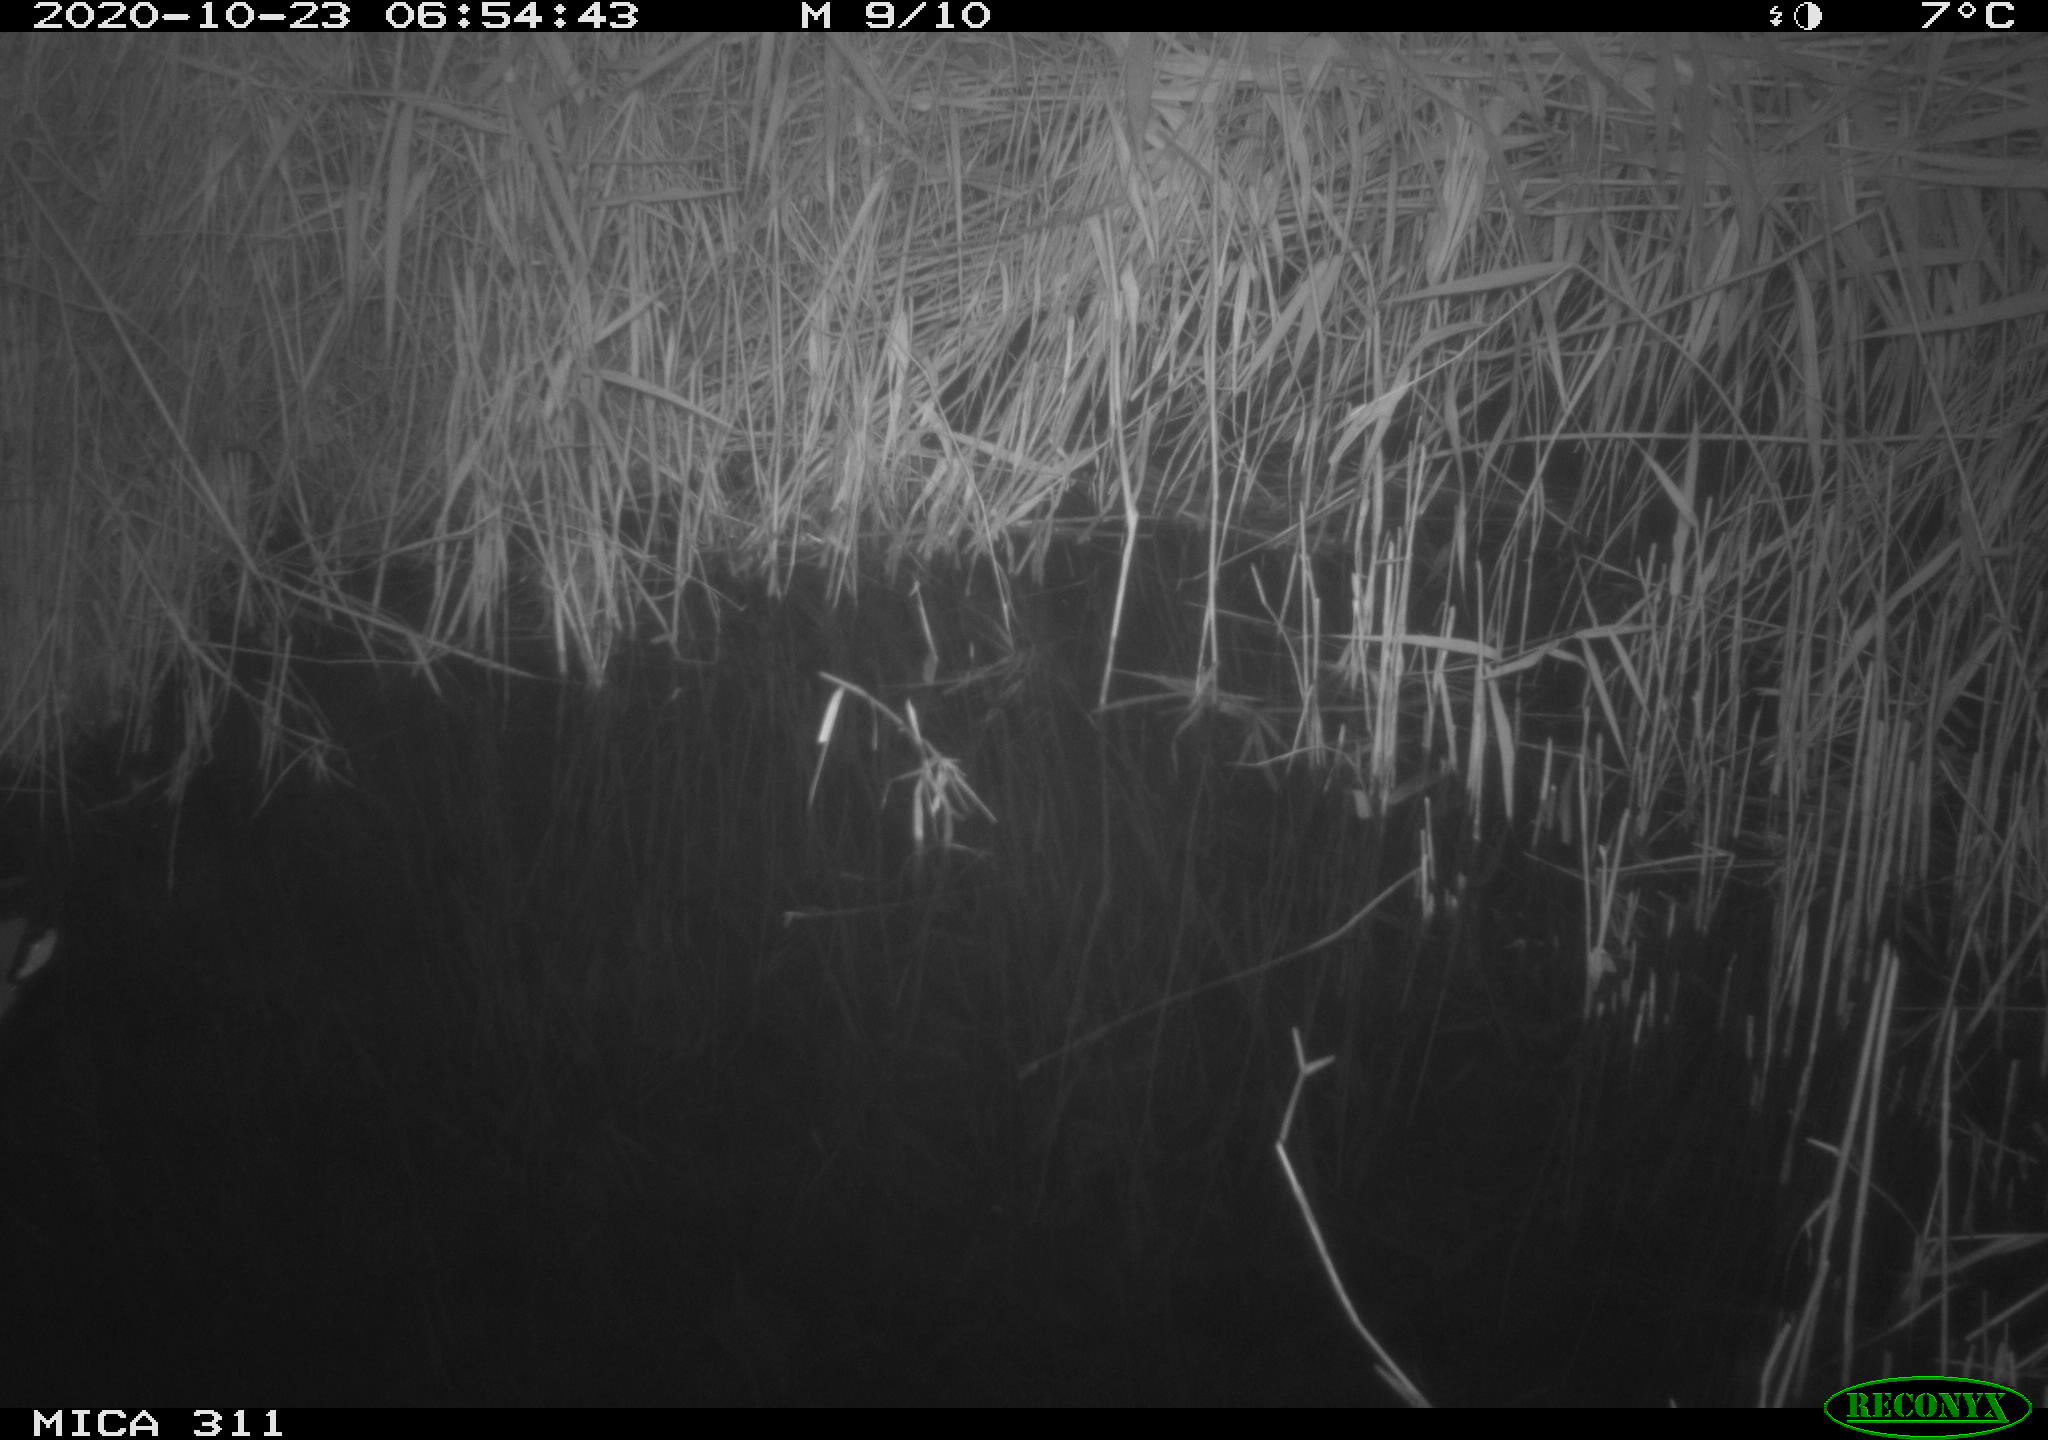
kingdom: Animalia
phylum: Chordata
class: Aves
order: Anseriformes
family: Anatidae
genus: Anas
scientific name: Anas platyrhynchos
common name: Mallard
